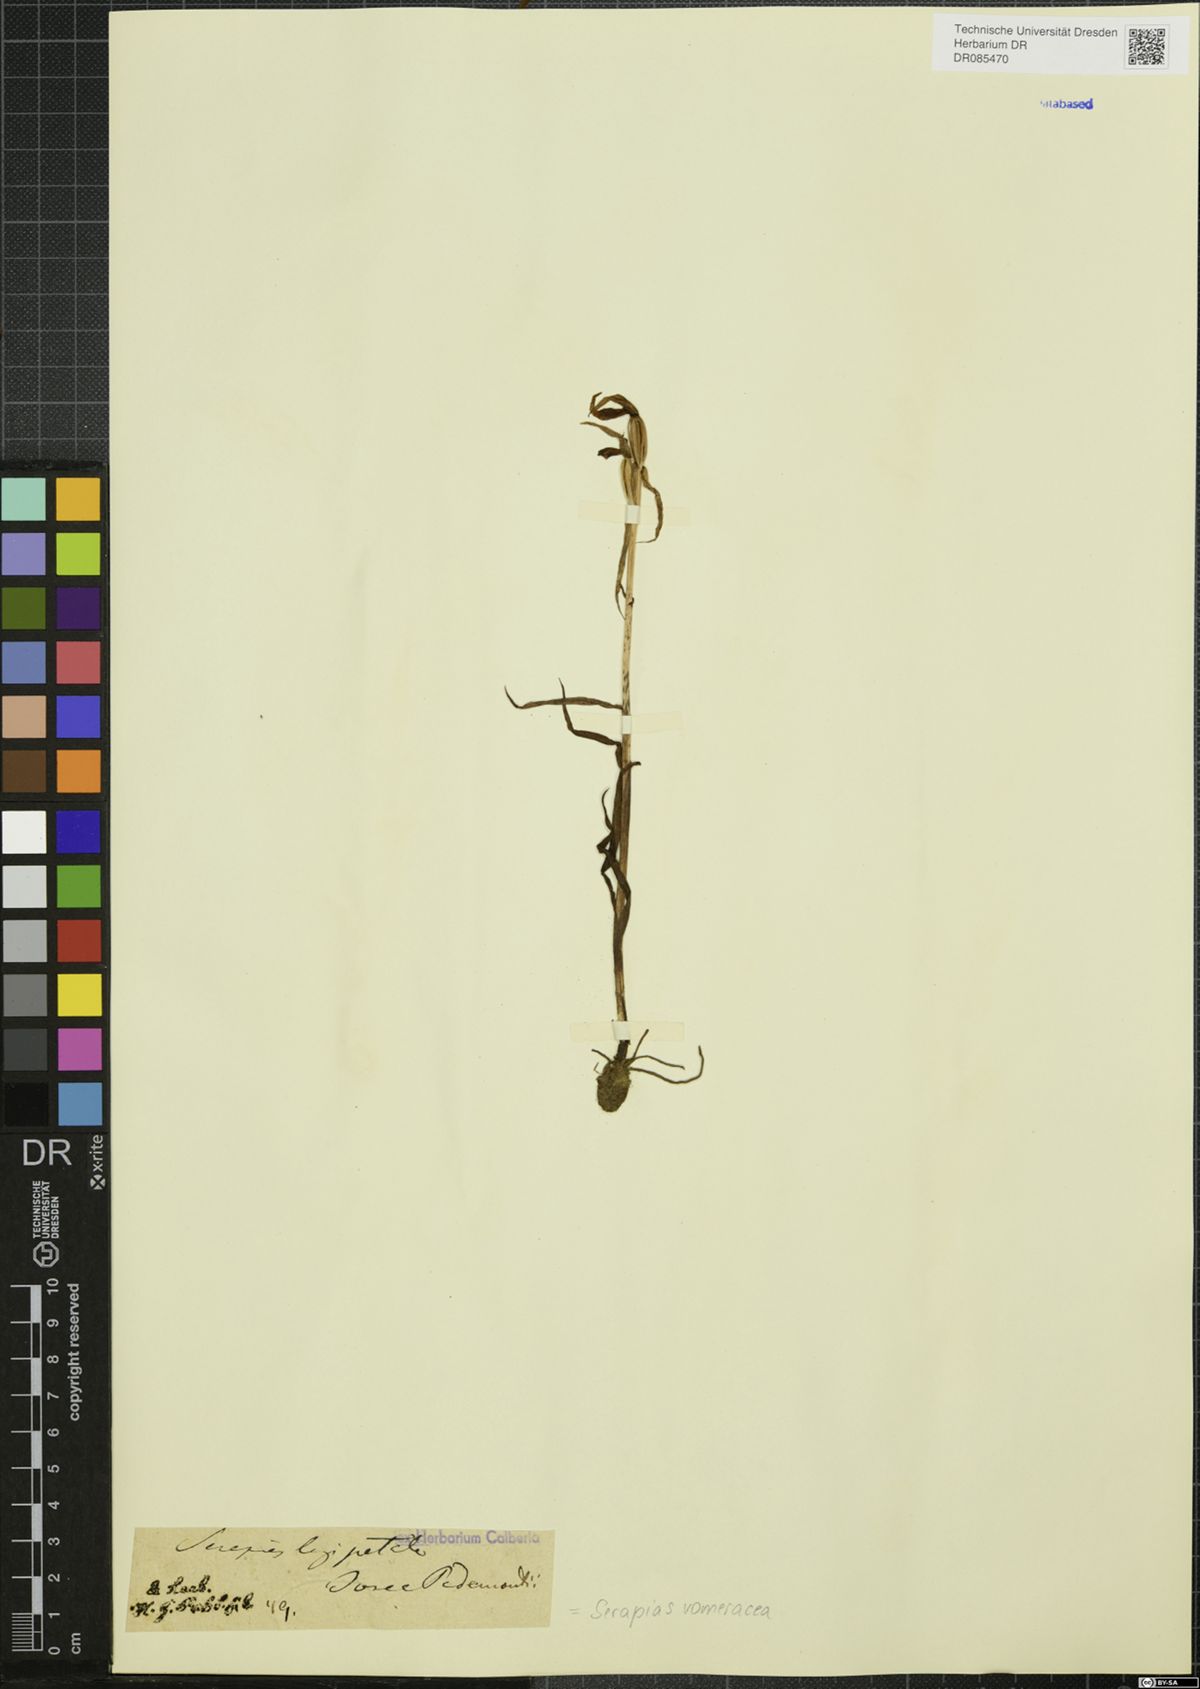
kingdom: Plantae
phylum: Tracheophyta
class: Liliopsida
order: Asparagales
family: Orchidaceae
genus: Serapias
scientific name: Serapias vomeracea
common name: Long-lipped tongue-orchid
